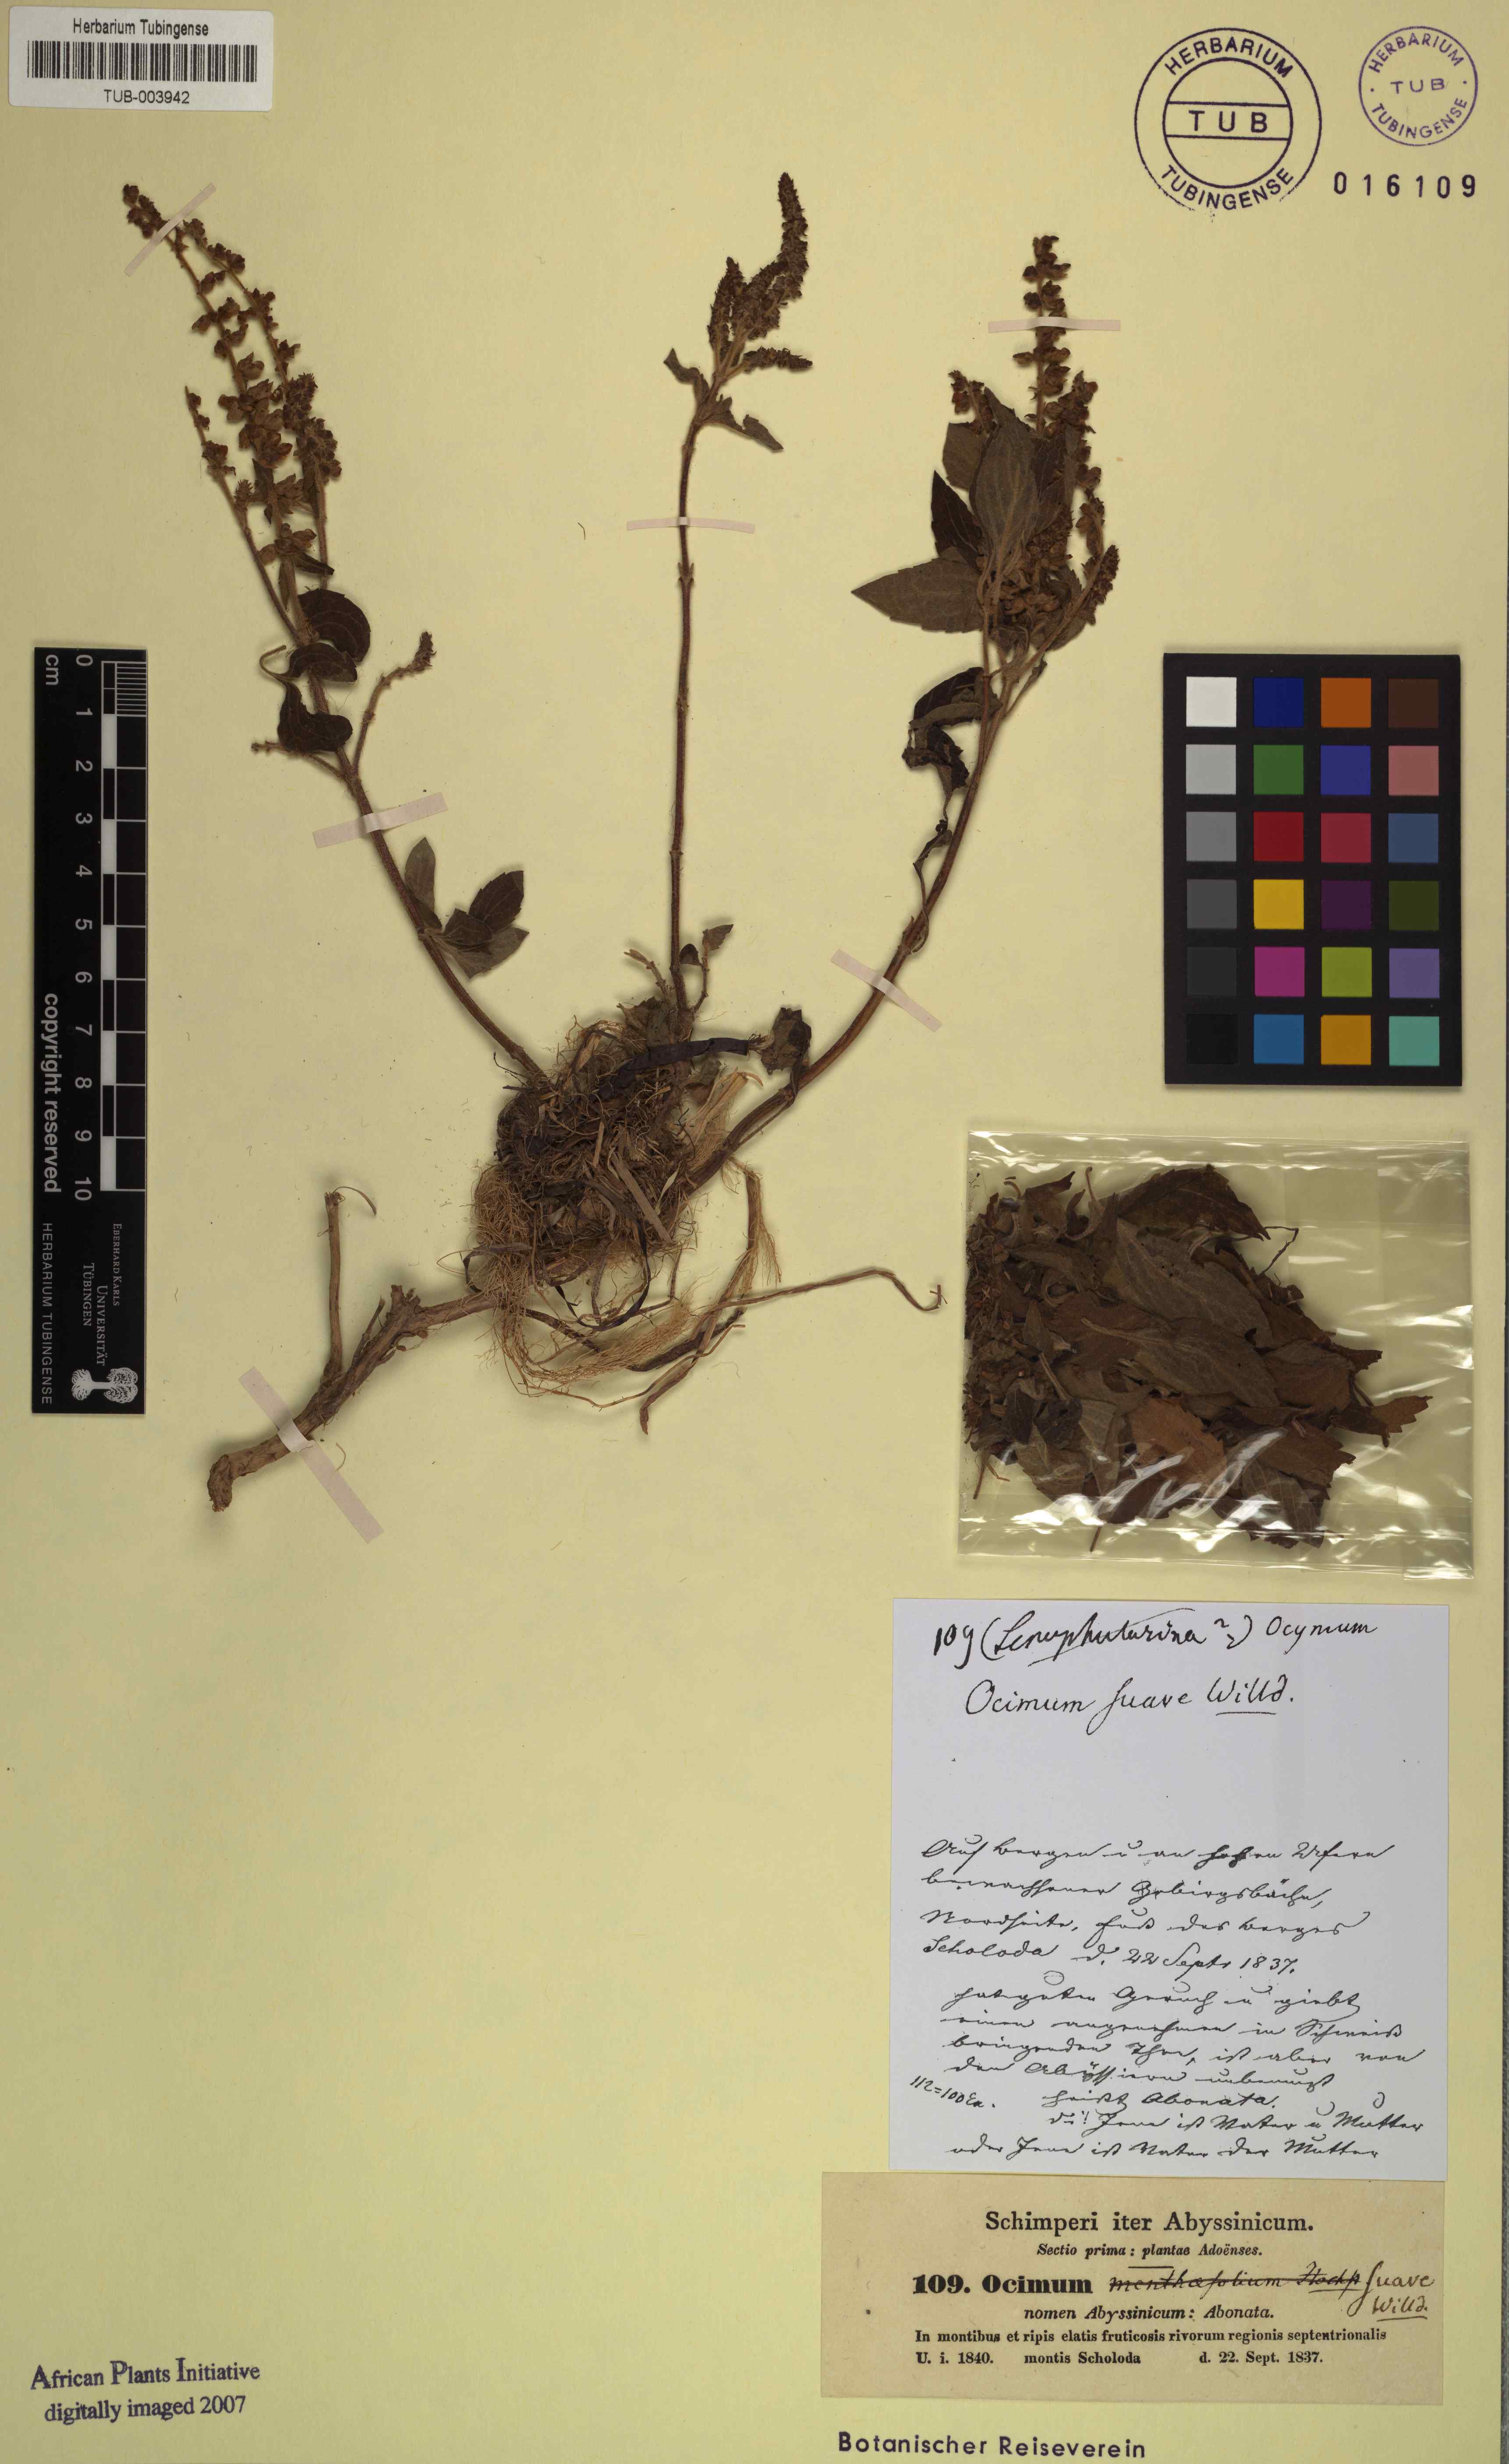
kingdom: Plantae
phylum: Tracheophyta
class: Magnoliopsida
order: Lamiales
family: Lamiaceae
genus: Ocimum
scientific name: Ocimum gratissimum
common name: African basil
